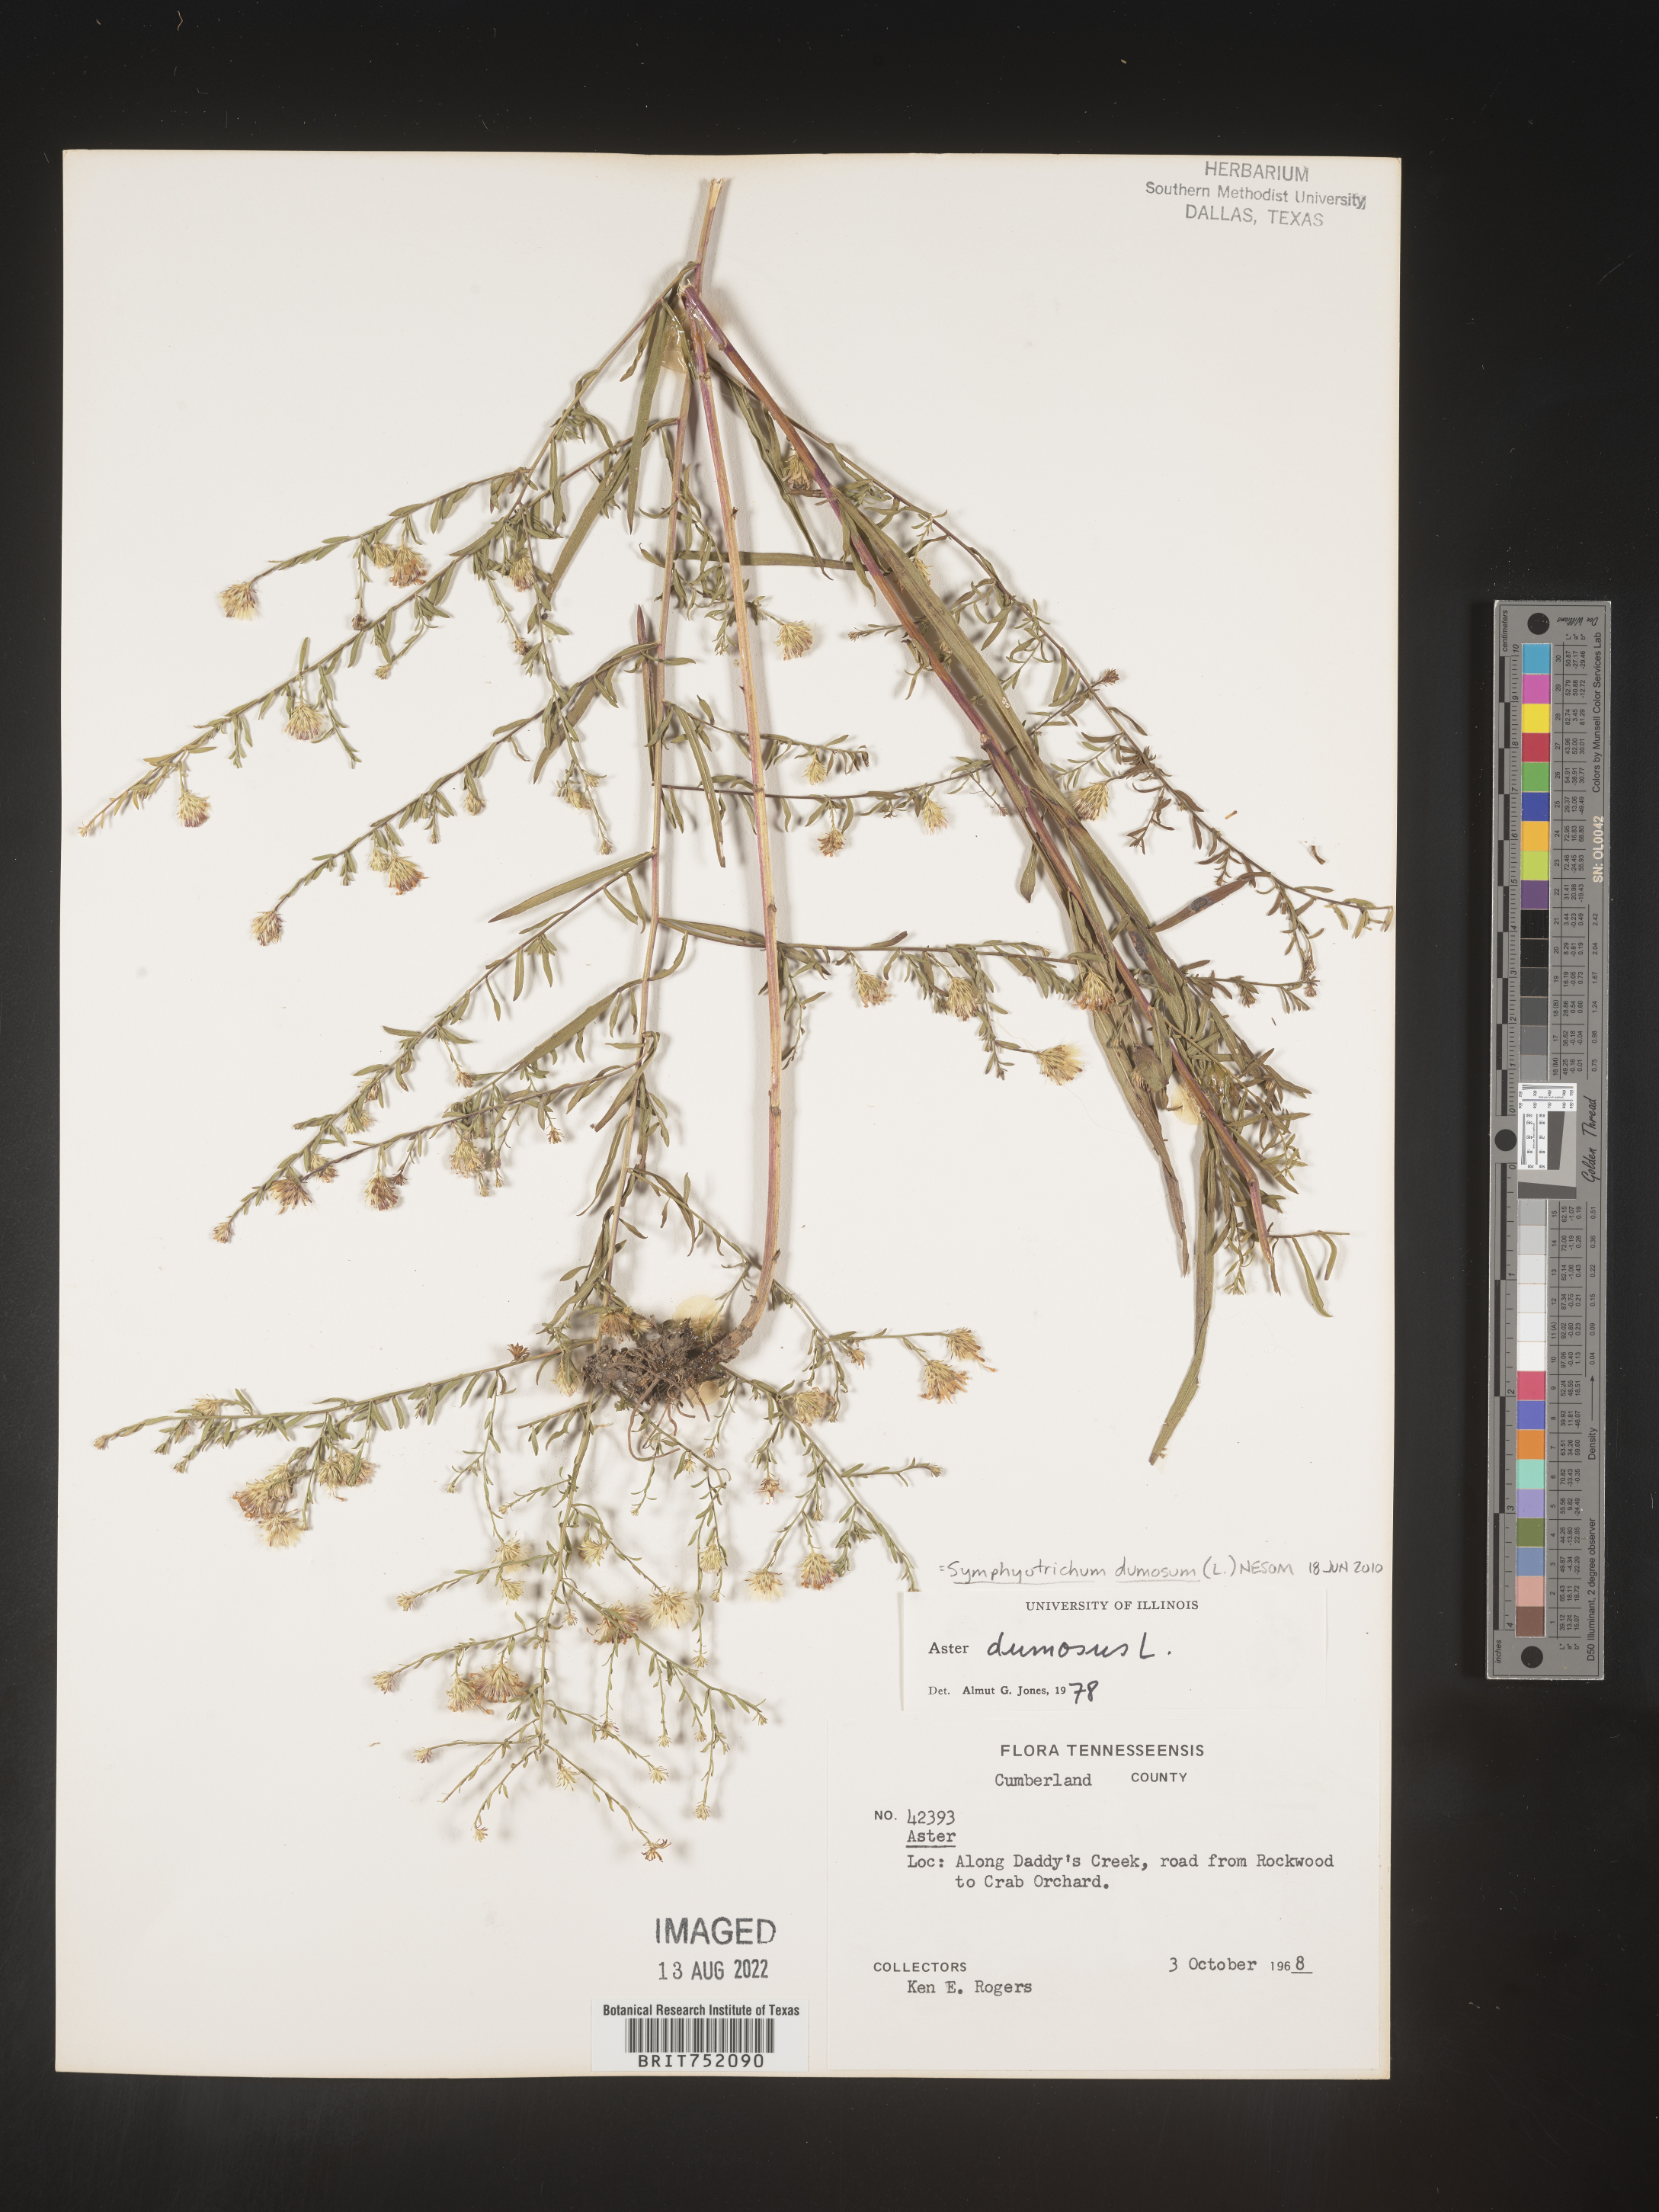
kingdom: Plantae
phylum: Tracheophyta
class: Magnoliopsida
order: Asterales
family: Asteraceae
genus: Symphyotrichum
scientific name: Symphyotrichum dumosum
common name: Bushy aster
